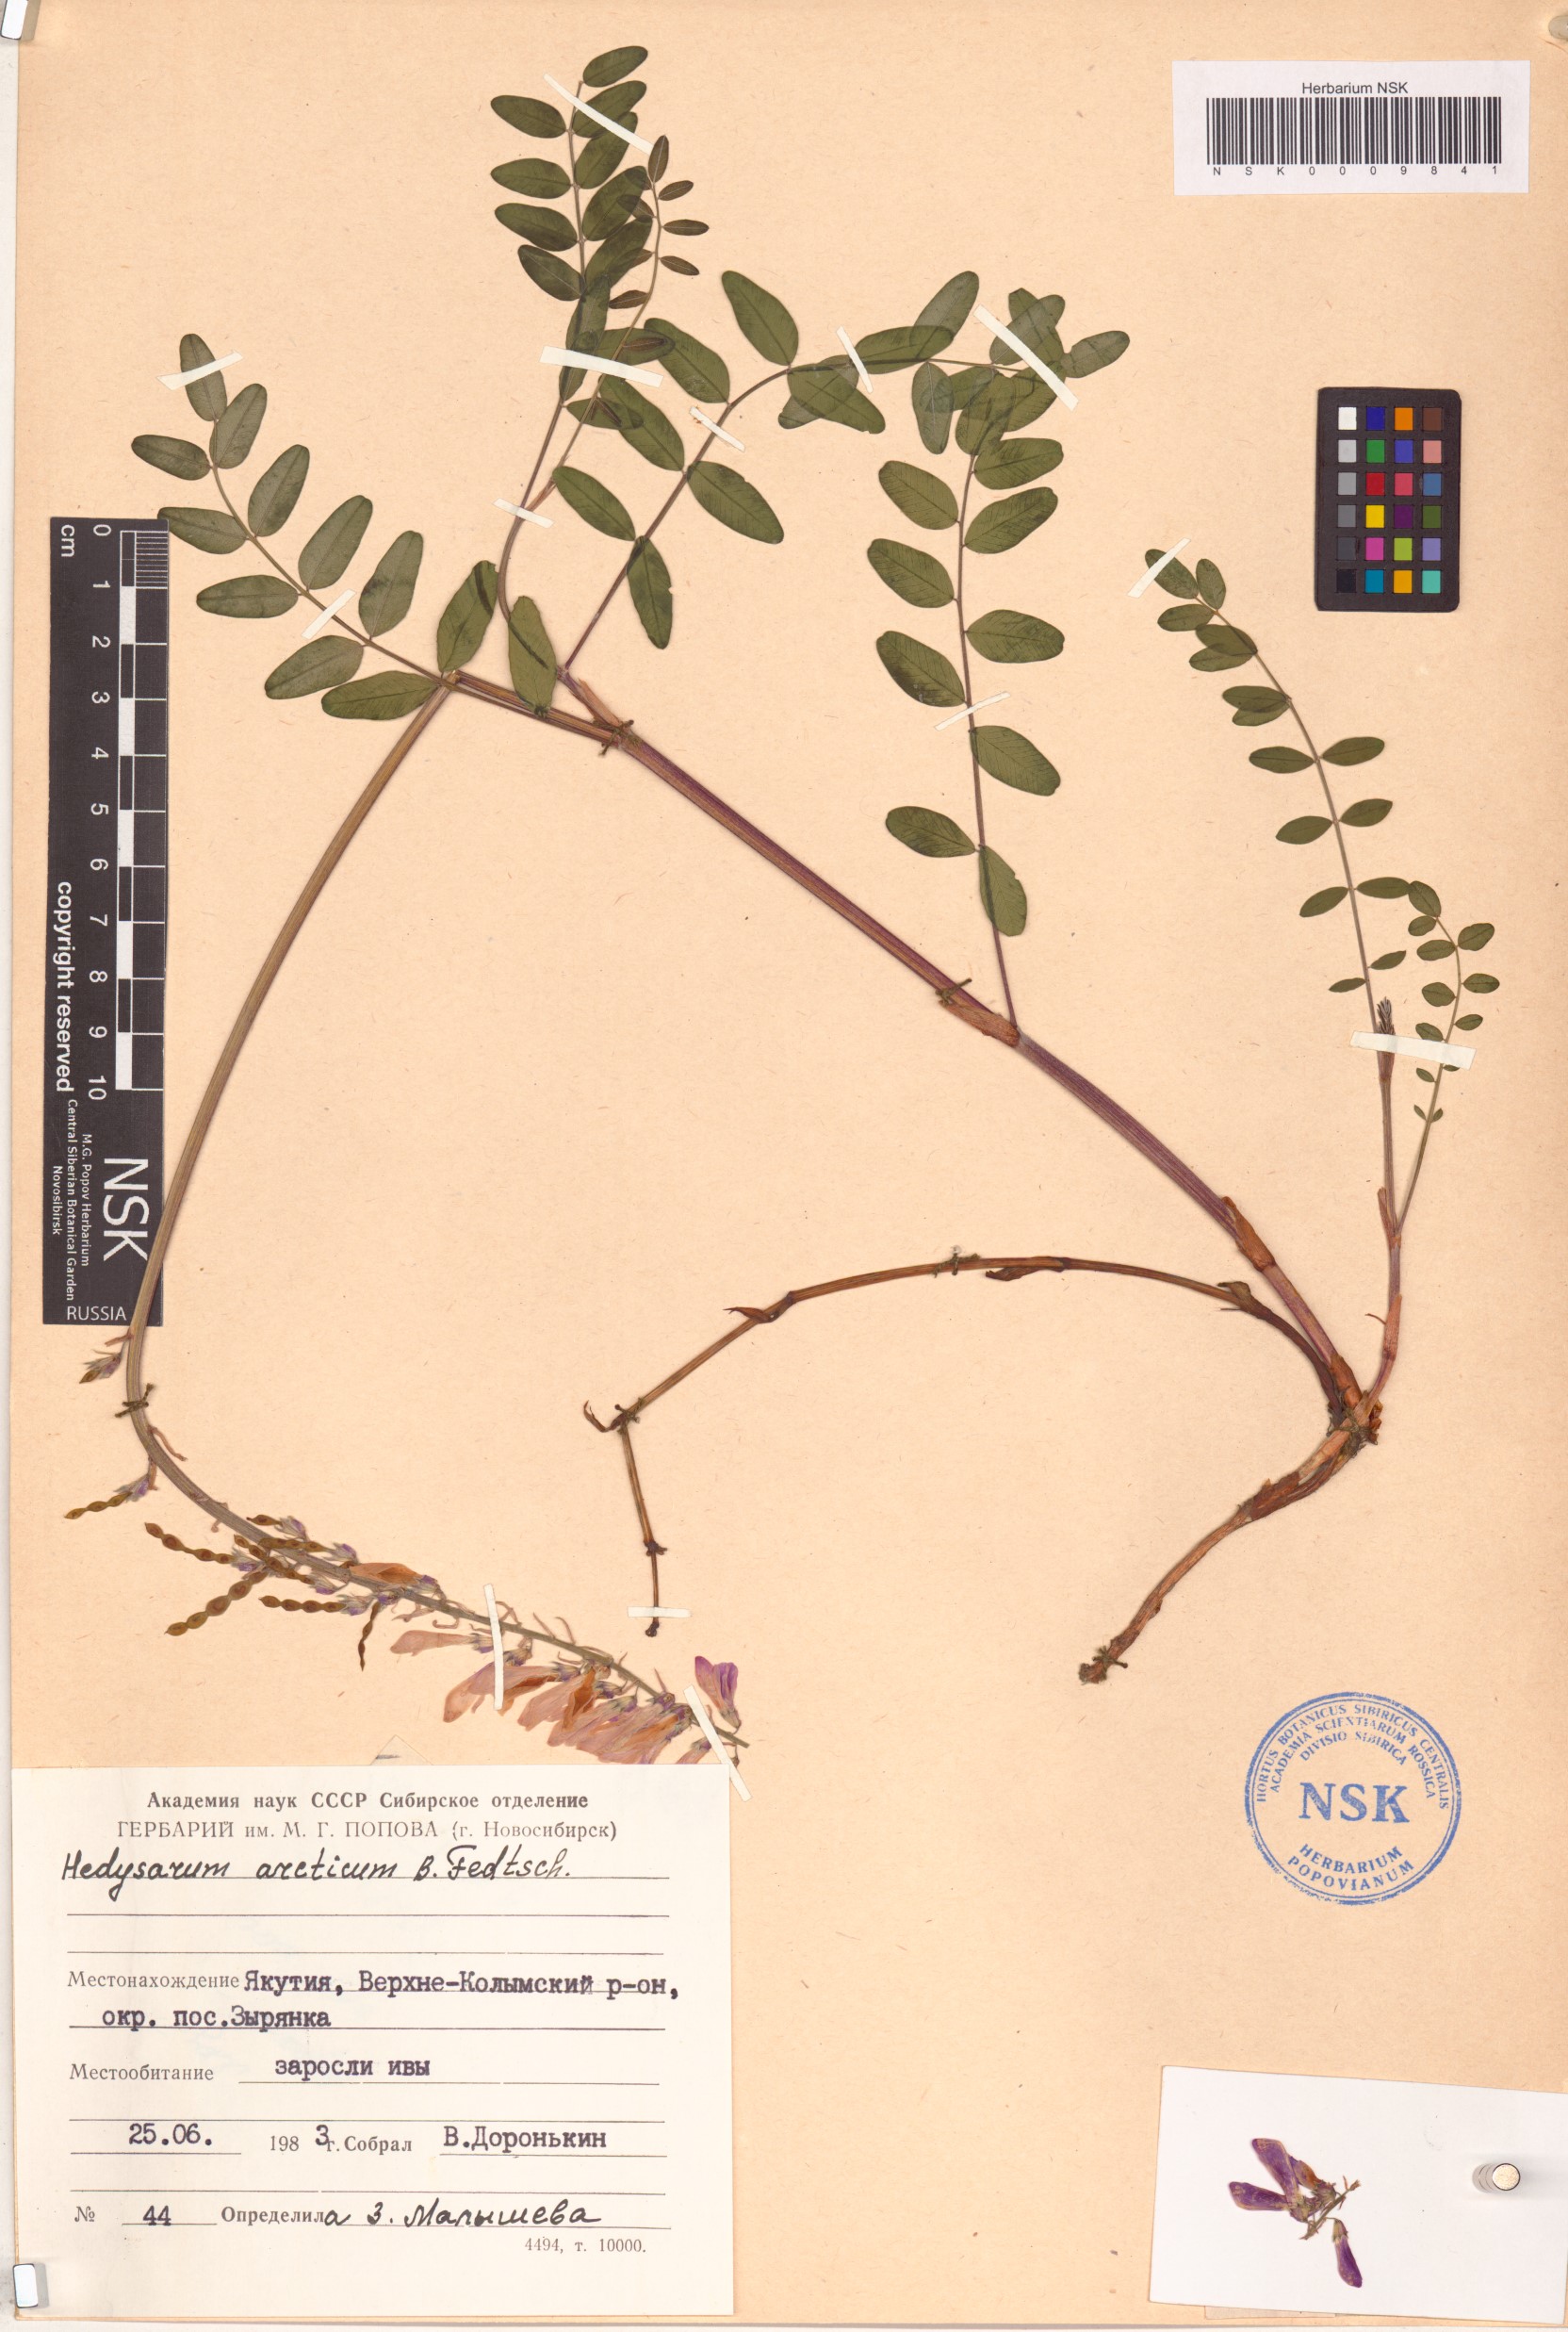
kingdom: Plantae
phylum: Tracheophyta
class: Magnoliopsida
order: Fabales
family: Fabaceae
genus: Hedysarum
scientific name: Hedysarum hedysaroides
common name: Alpine french-honeysuckle
